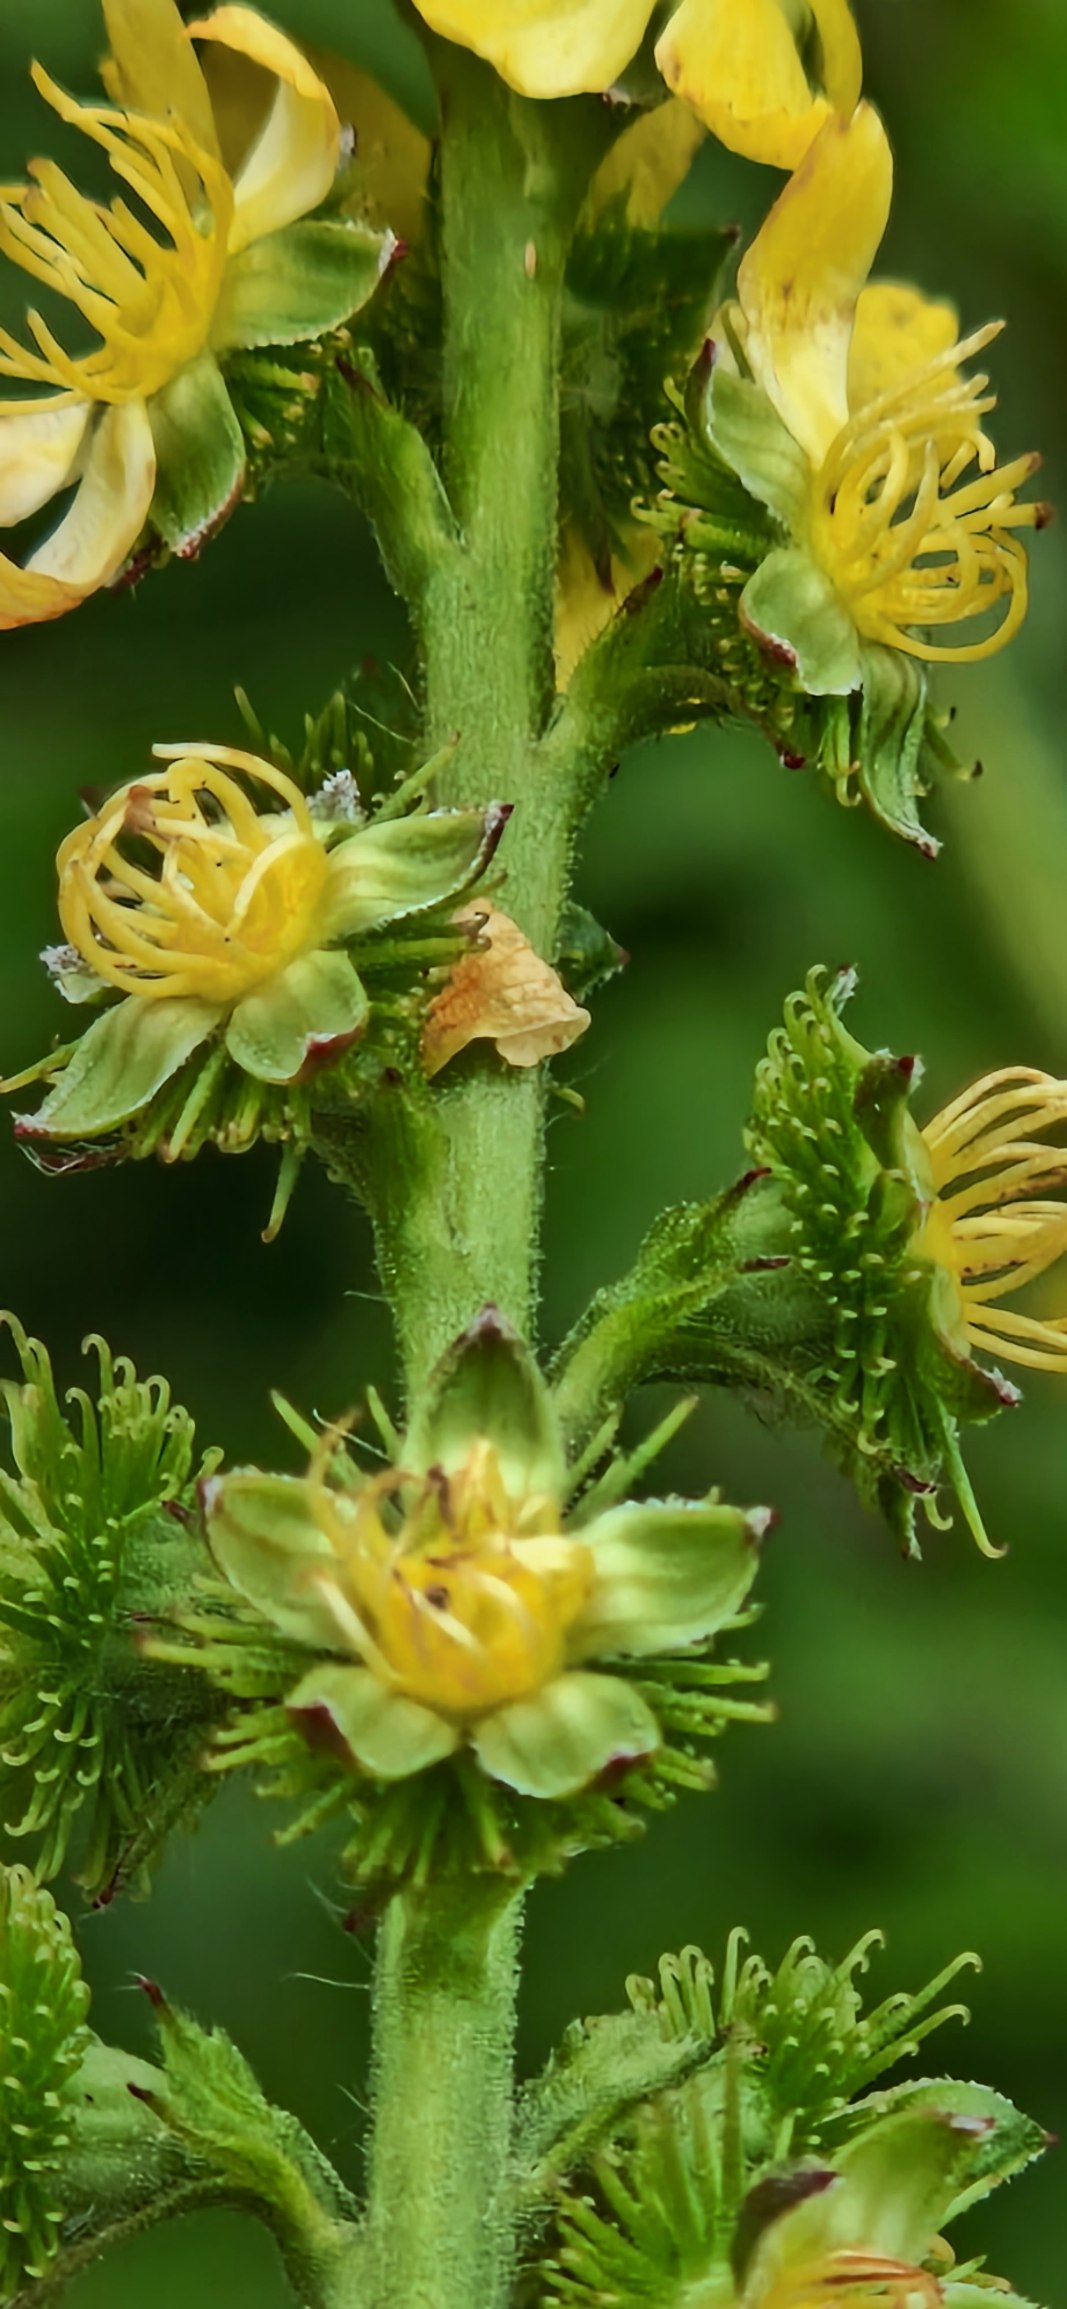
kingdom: Plantae
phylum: Tracheophyta
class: Magnoliopsida
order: Rosales
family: Rosaceae
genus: Agrimonia
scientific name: Agrimonia procera
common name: Vellugtende agermåne
